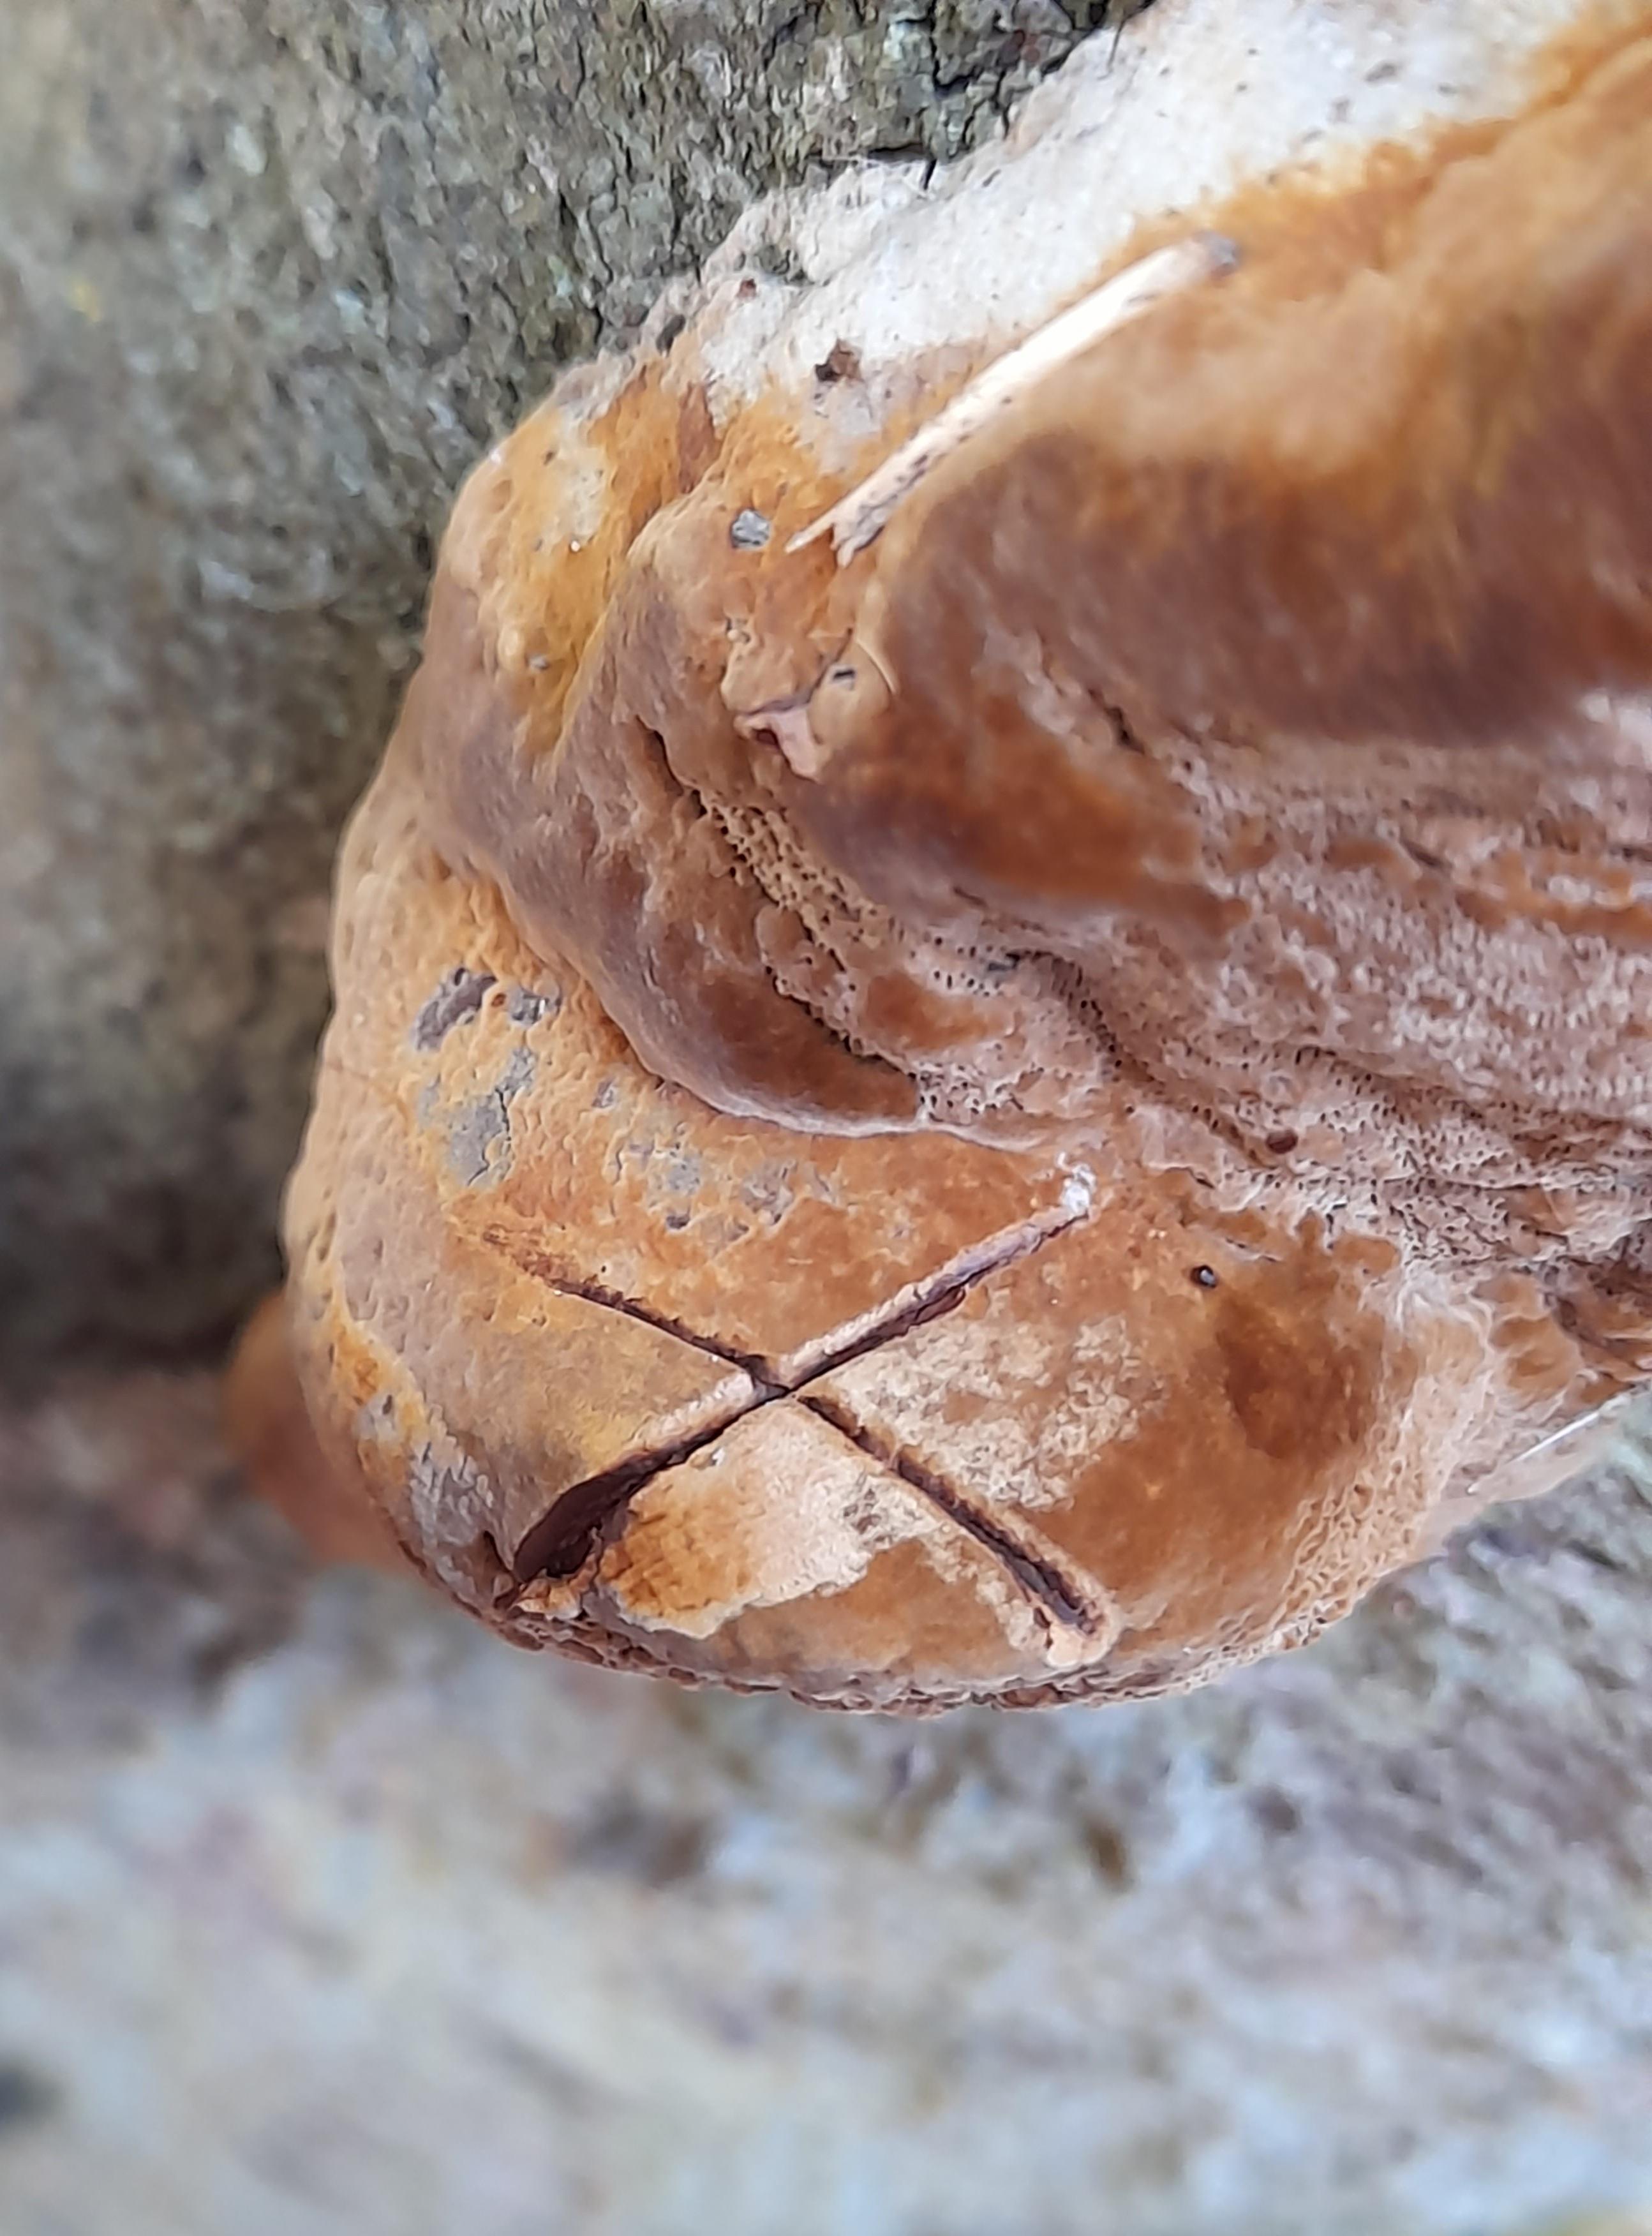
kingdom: Fungi
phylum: Basidiomycota
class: Agaricomycetes
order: Hymenochaetales
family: Hymenochaetaceae
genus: Phellinus
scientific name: Phellinus pomaceus
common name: blomme-ildporesvamp
